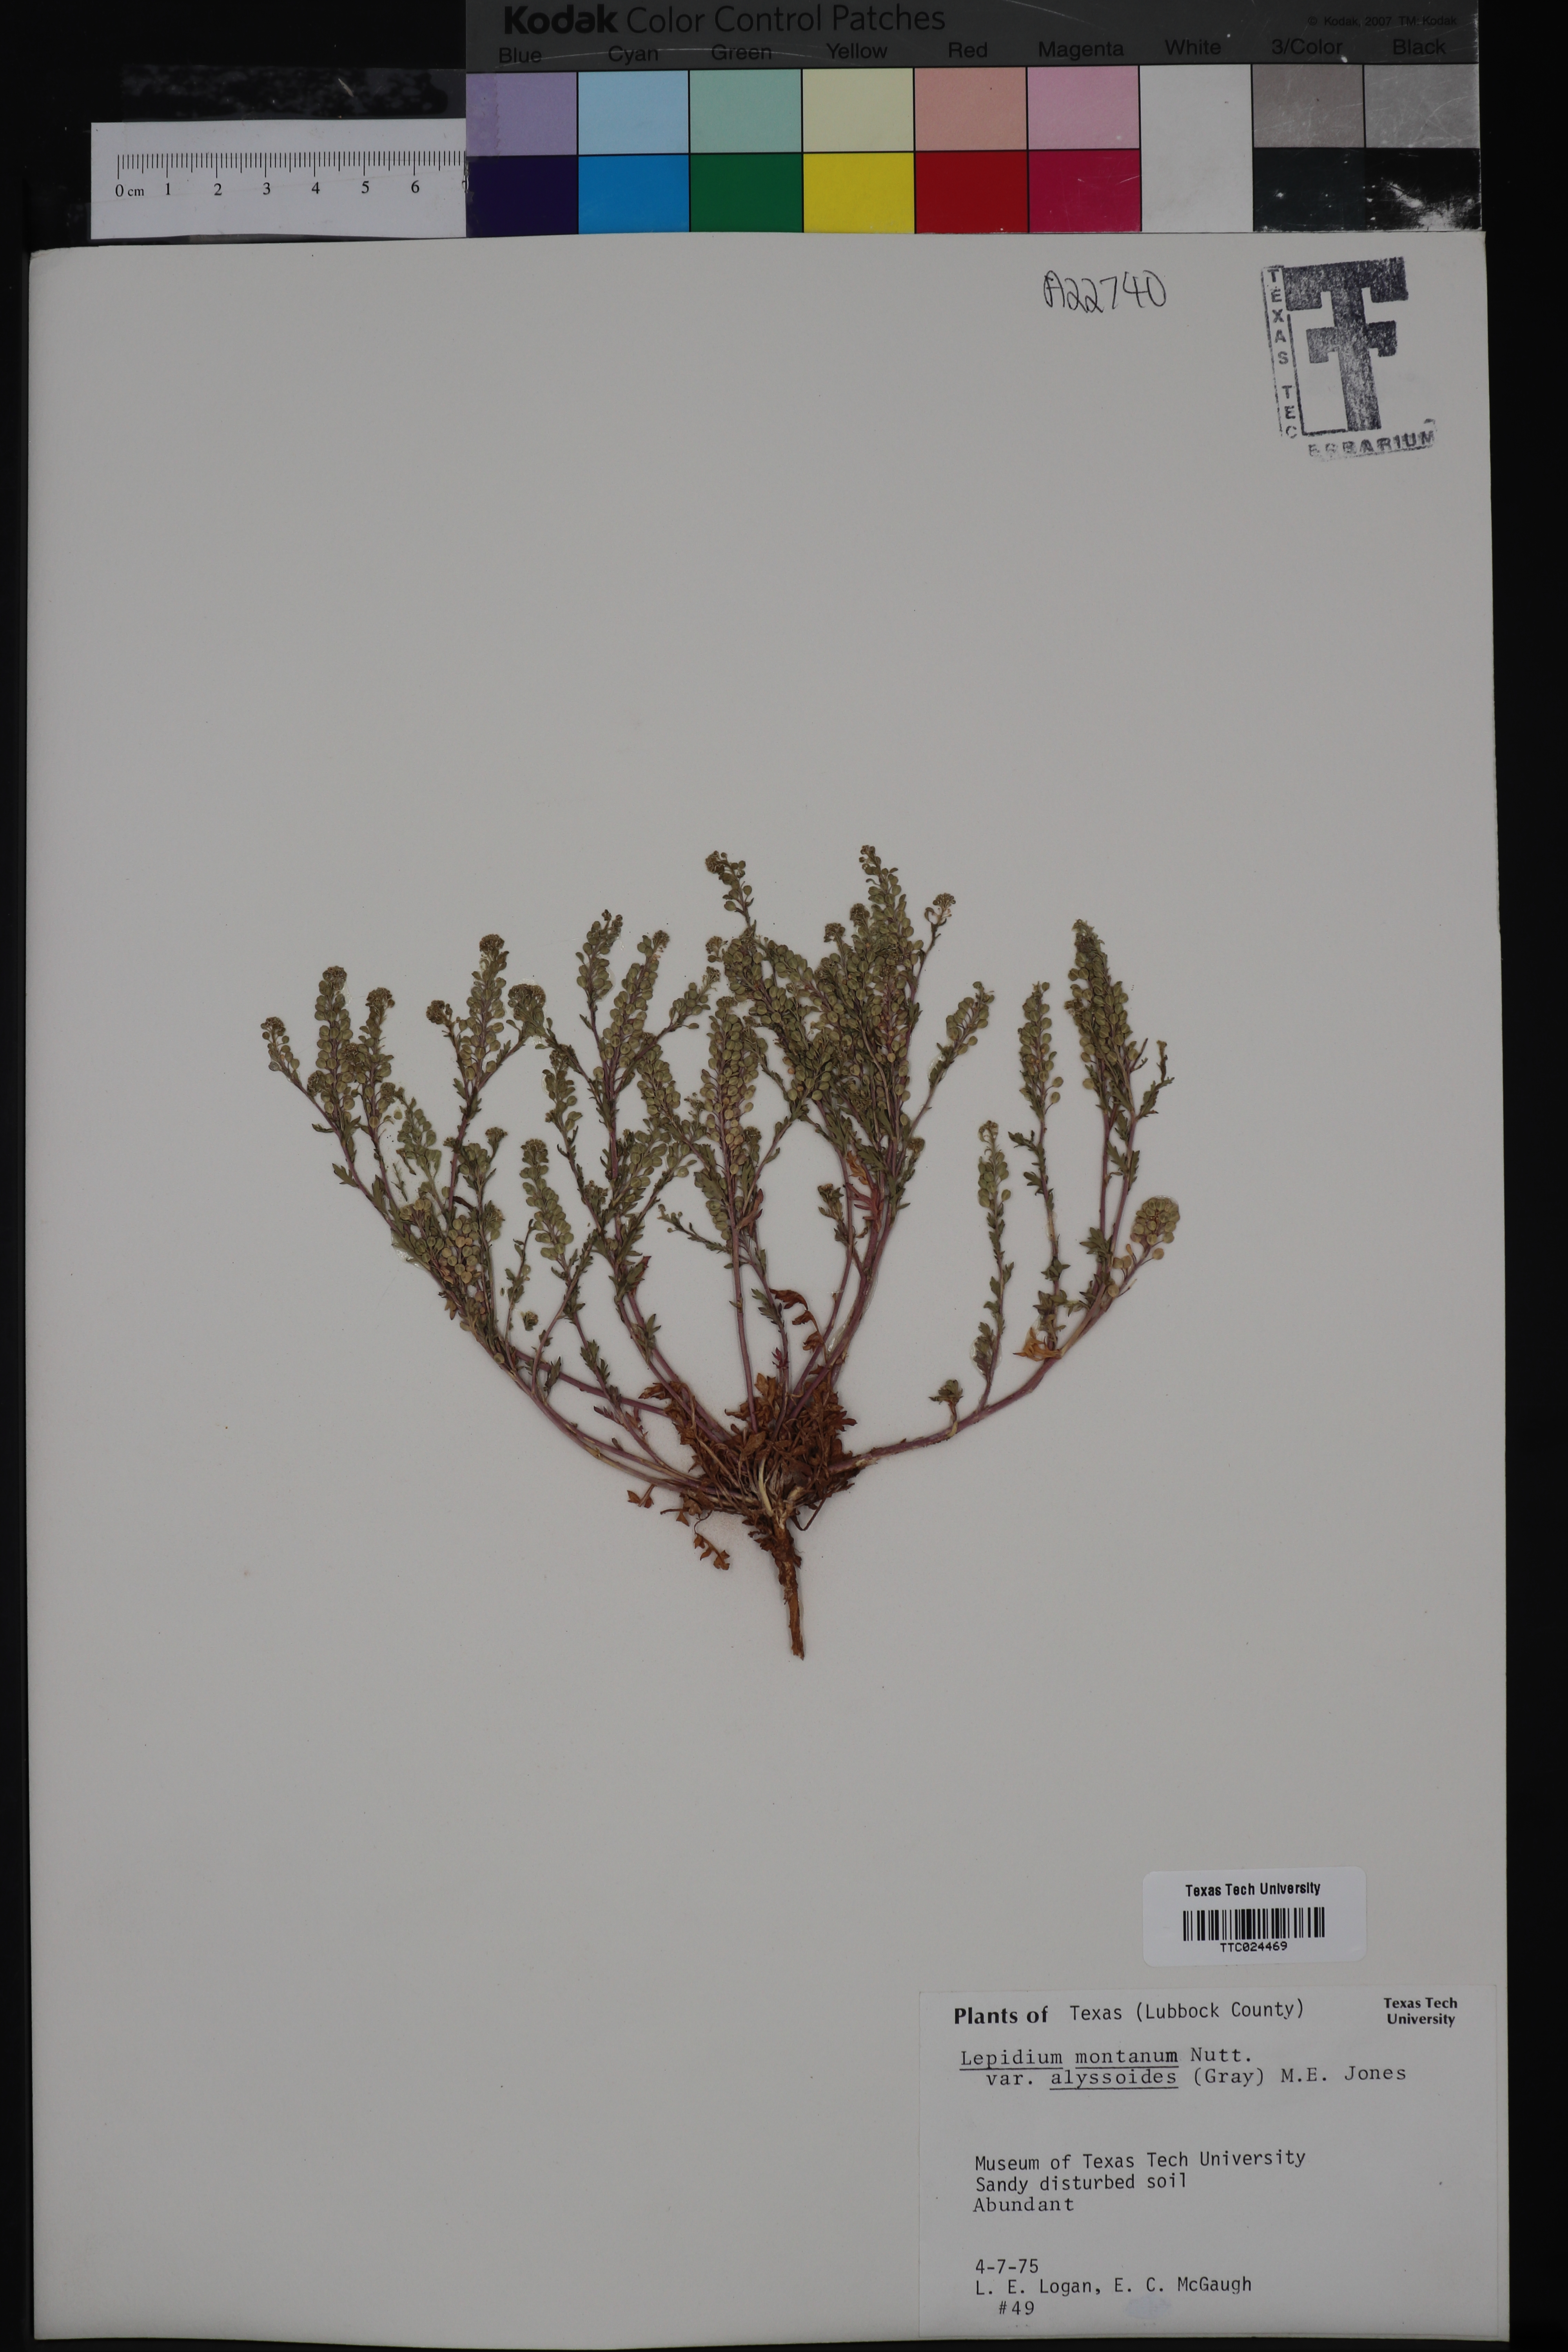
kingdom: Plantae
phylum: Tracheophyta
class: Magnoliopsida
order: Brassicales
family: Brassicaceae
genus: Lepidium
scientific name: Lepidium alyssoides
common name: Mesa pepperweed
